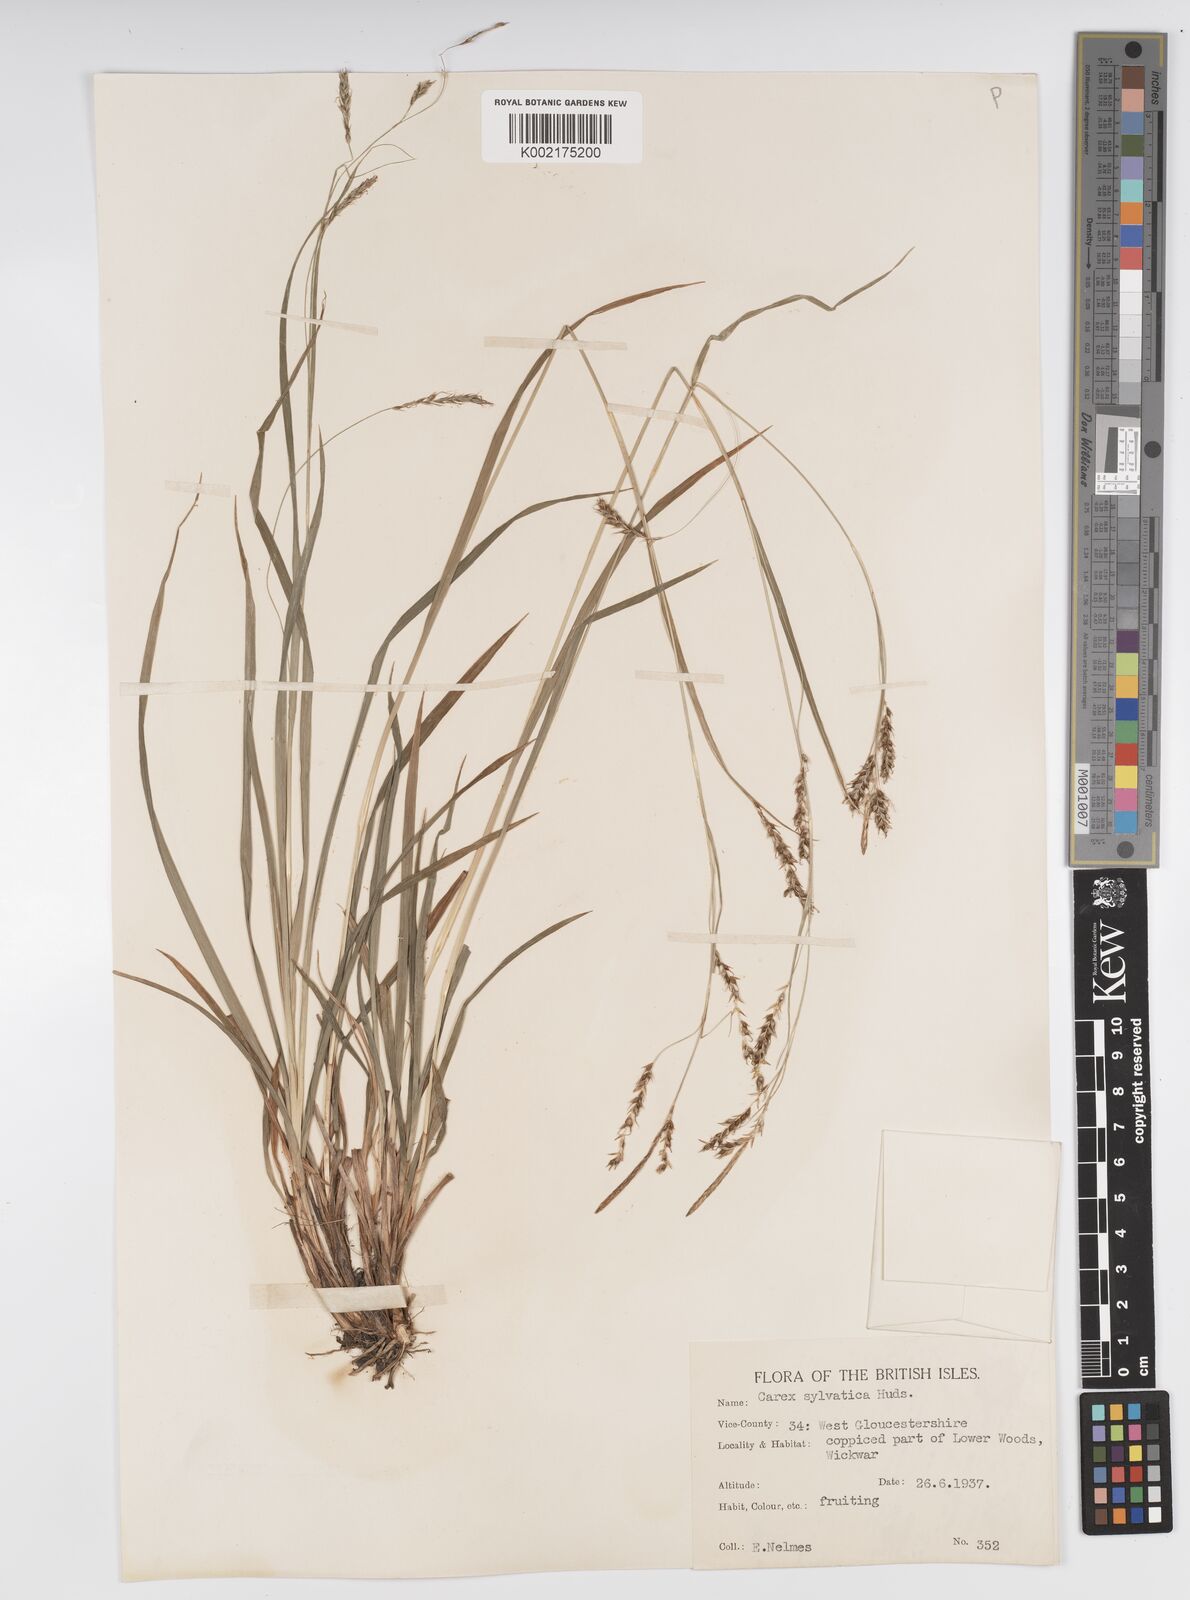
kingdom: Plantae
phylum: Tracheophyta
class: Liliopsida
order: Poales
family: Cyperaceae
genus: Carex
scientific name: Carex sylvatica
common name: Wood-sedge
